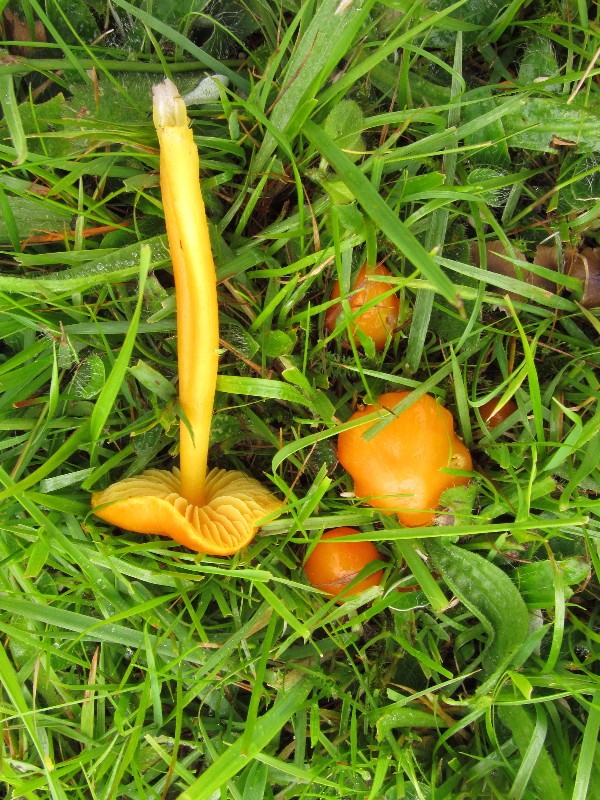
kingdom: Fungi
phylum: Basidiomycota
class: Agaricomycetes
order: Agaricales
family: Hygrophoraceae
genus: Hygrocybe
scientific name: Hygrocybe chlorophana
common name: gul vokshat
